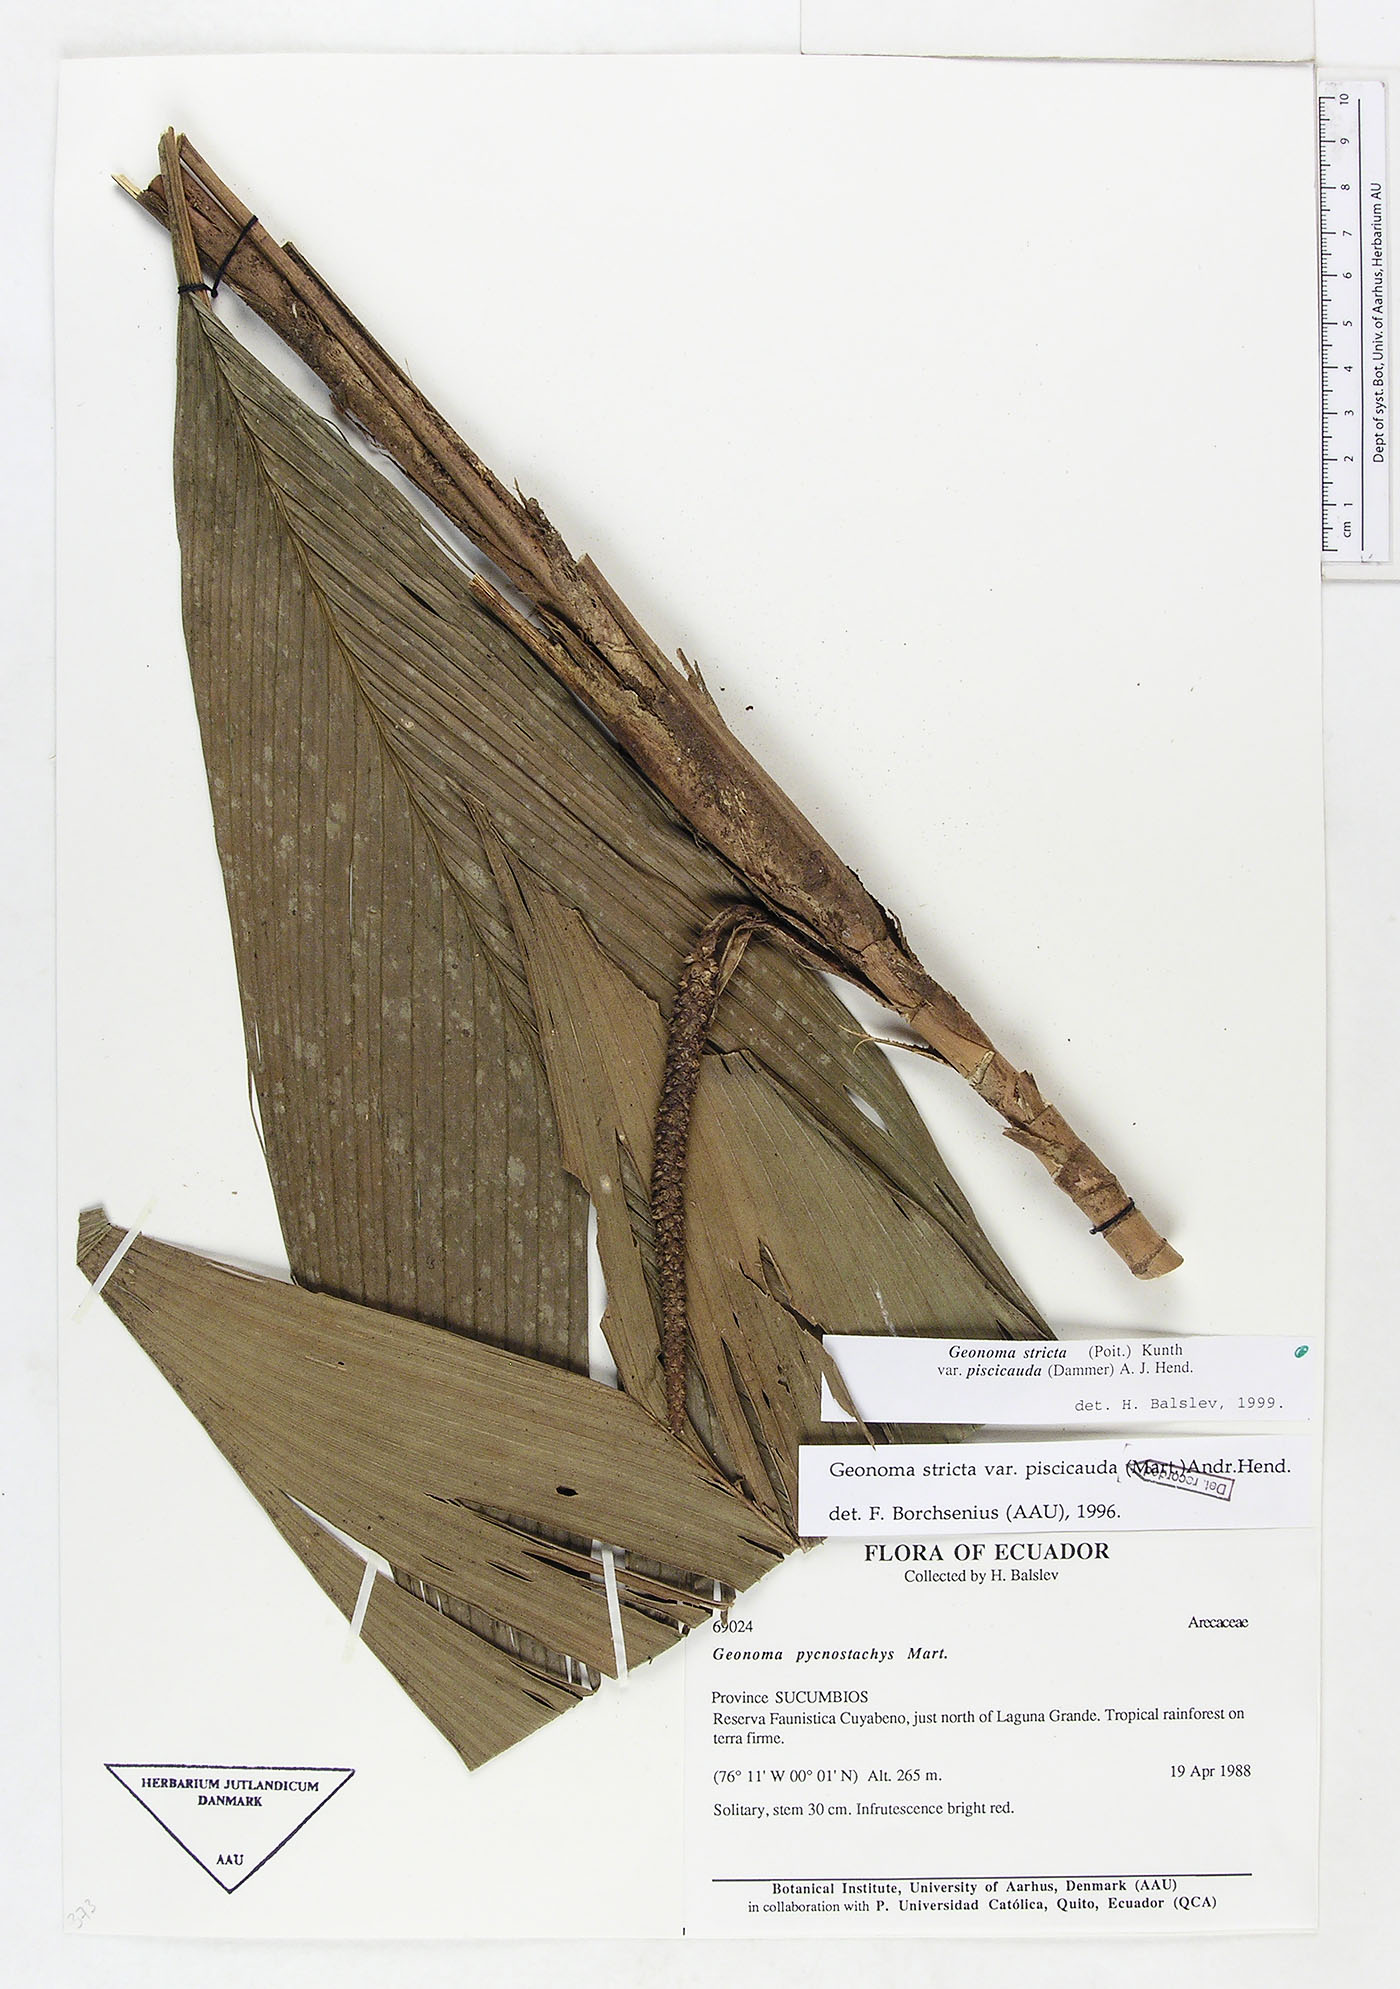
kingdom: Plantae
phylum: Tracheophyta
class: Liliopsida
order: Arecales
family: Arecaceae
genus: Geonoma
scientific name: Geonoma stricta
